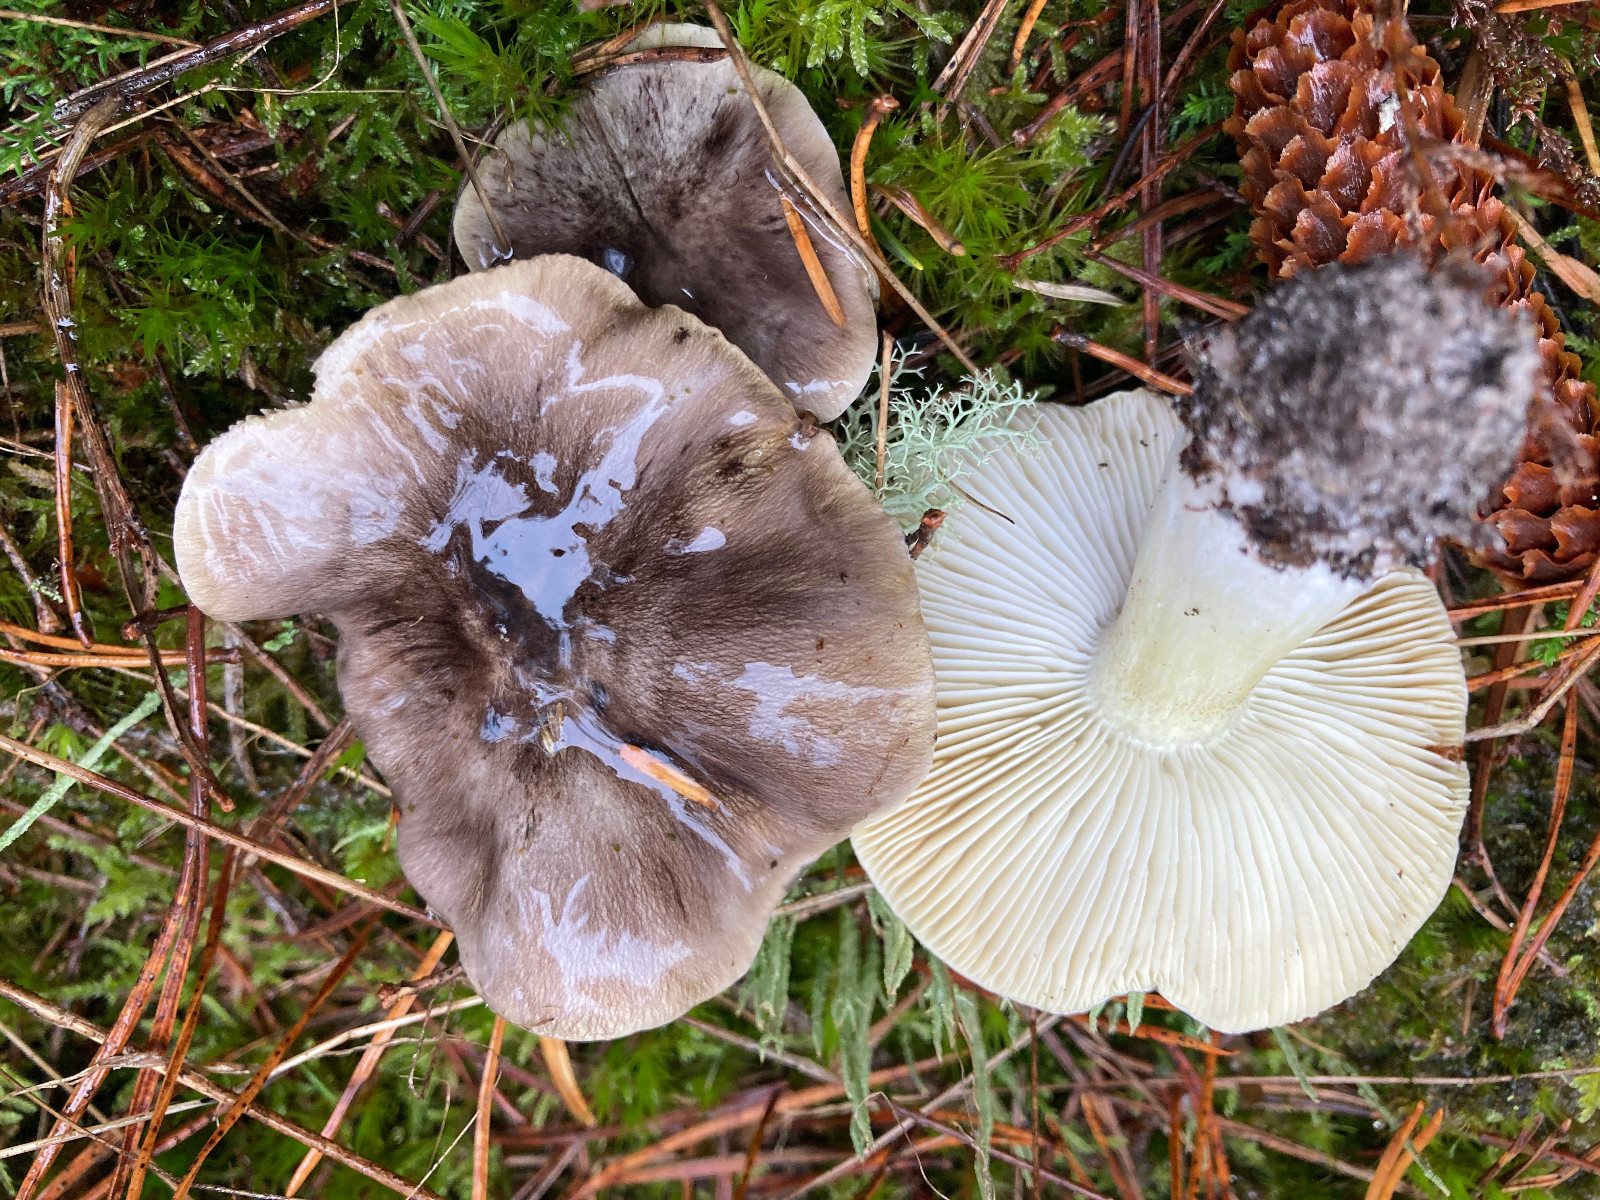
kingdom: Fungi
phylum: Basidiomycota
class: Agaricomycetes
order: Agaricales
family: Tricholomataceae
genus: Tricholoma
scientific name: Tricholoma portentosum
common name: grå ridderhat
